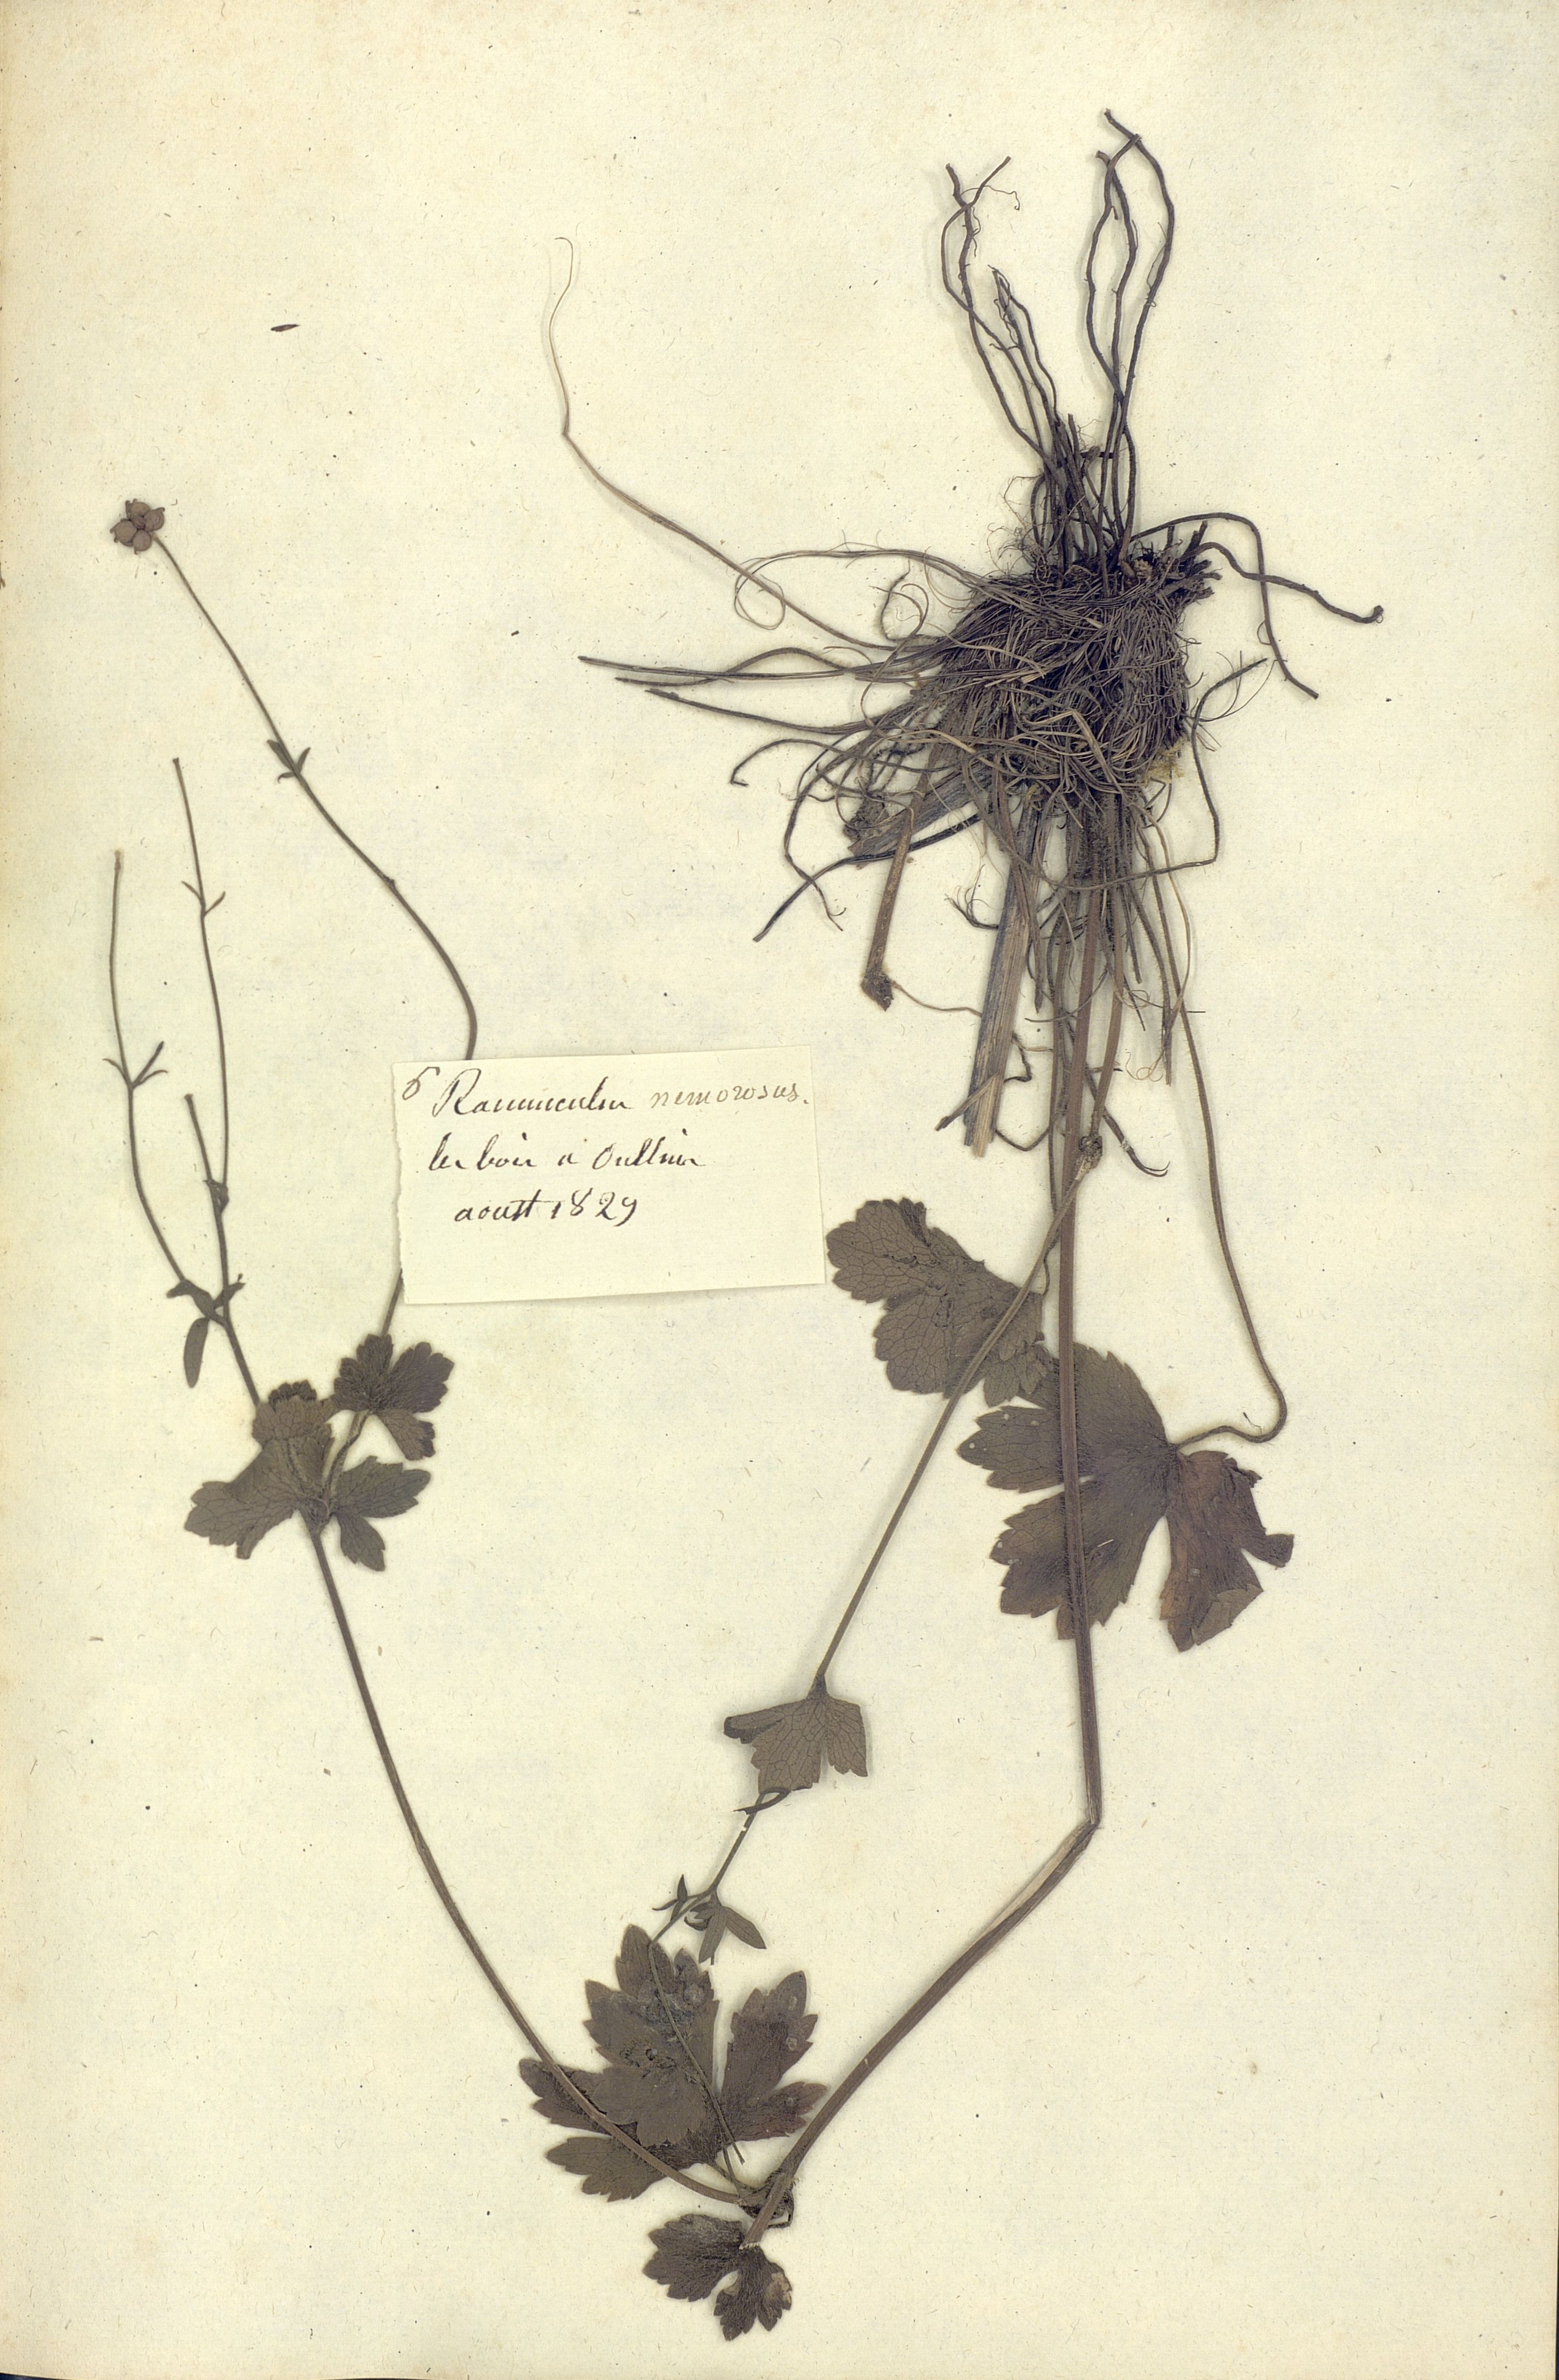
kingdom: Plantae
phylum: Tracheophyta
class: Magnoliopsida
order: Ranunculales
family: Ranunculaceae
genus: Ranunculus
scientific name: Ranunculus polyanthemos
